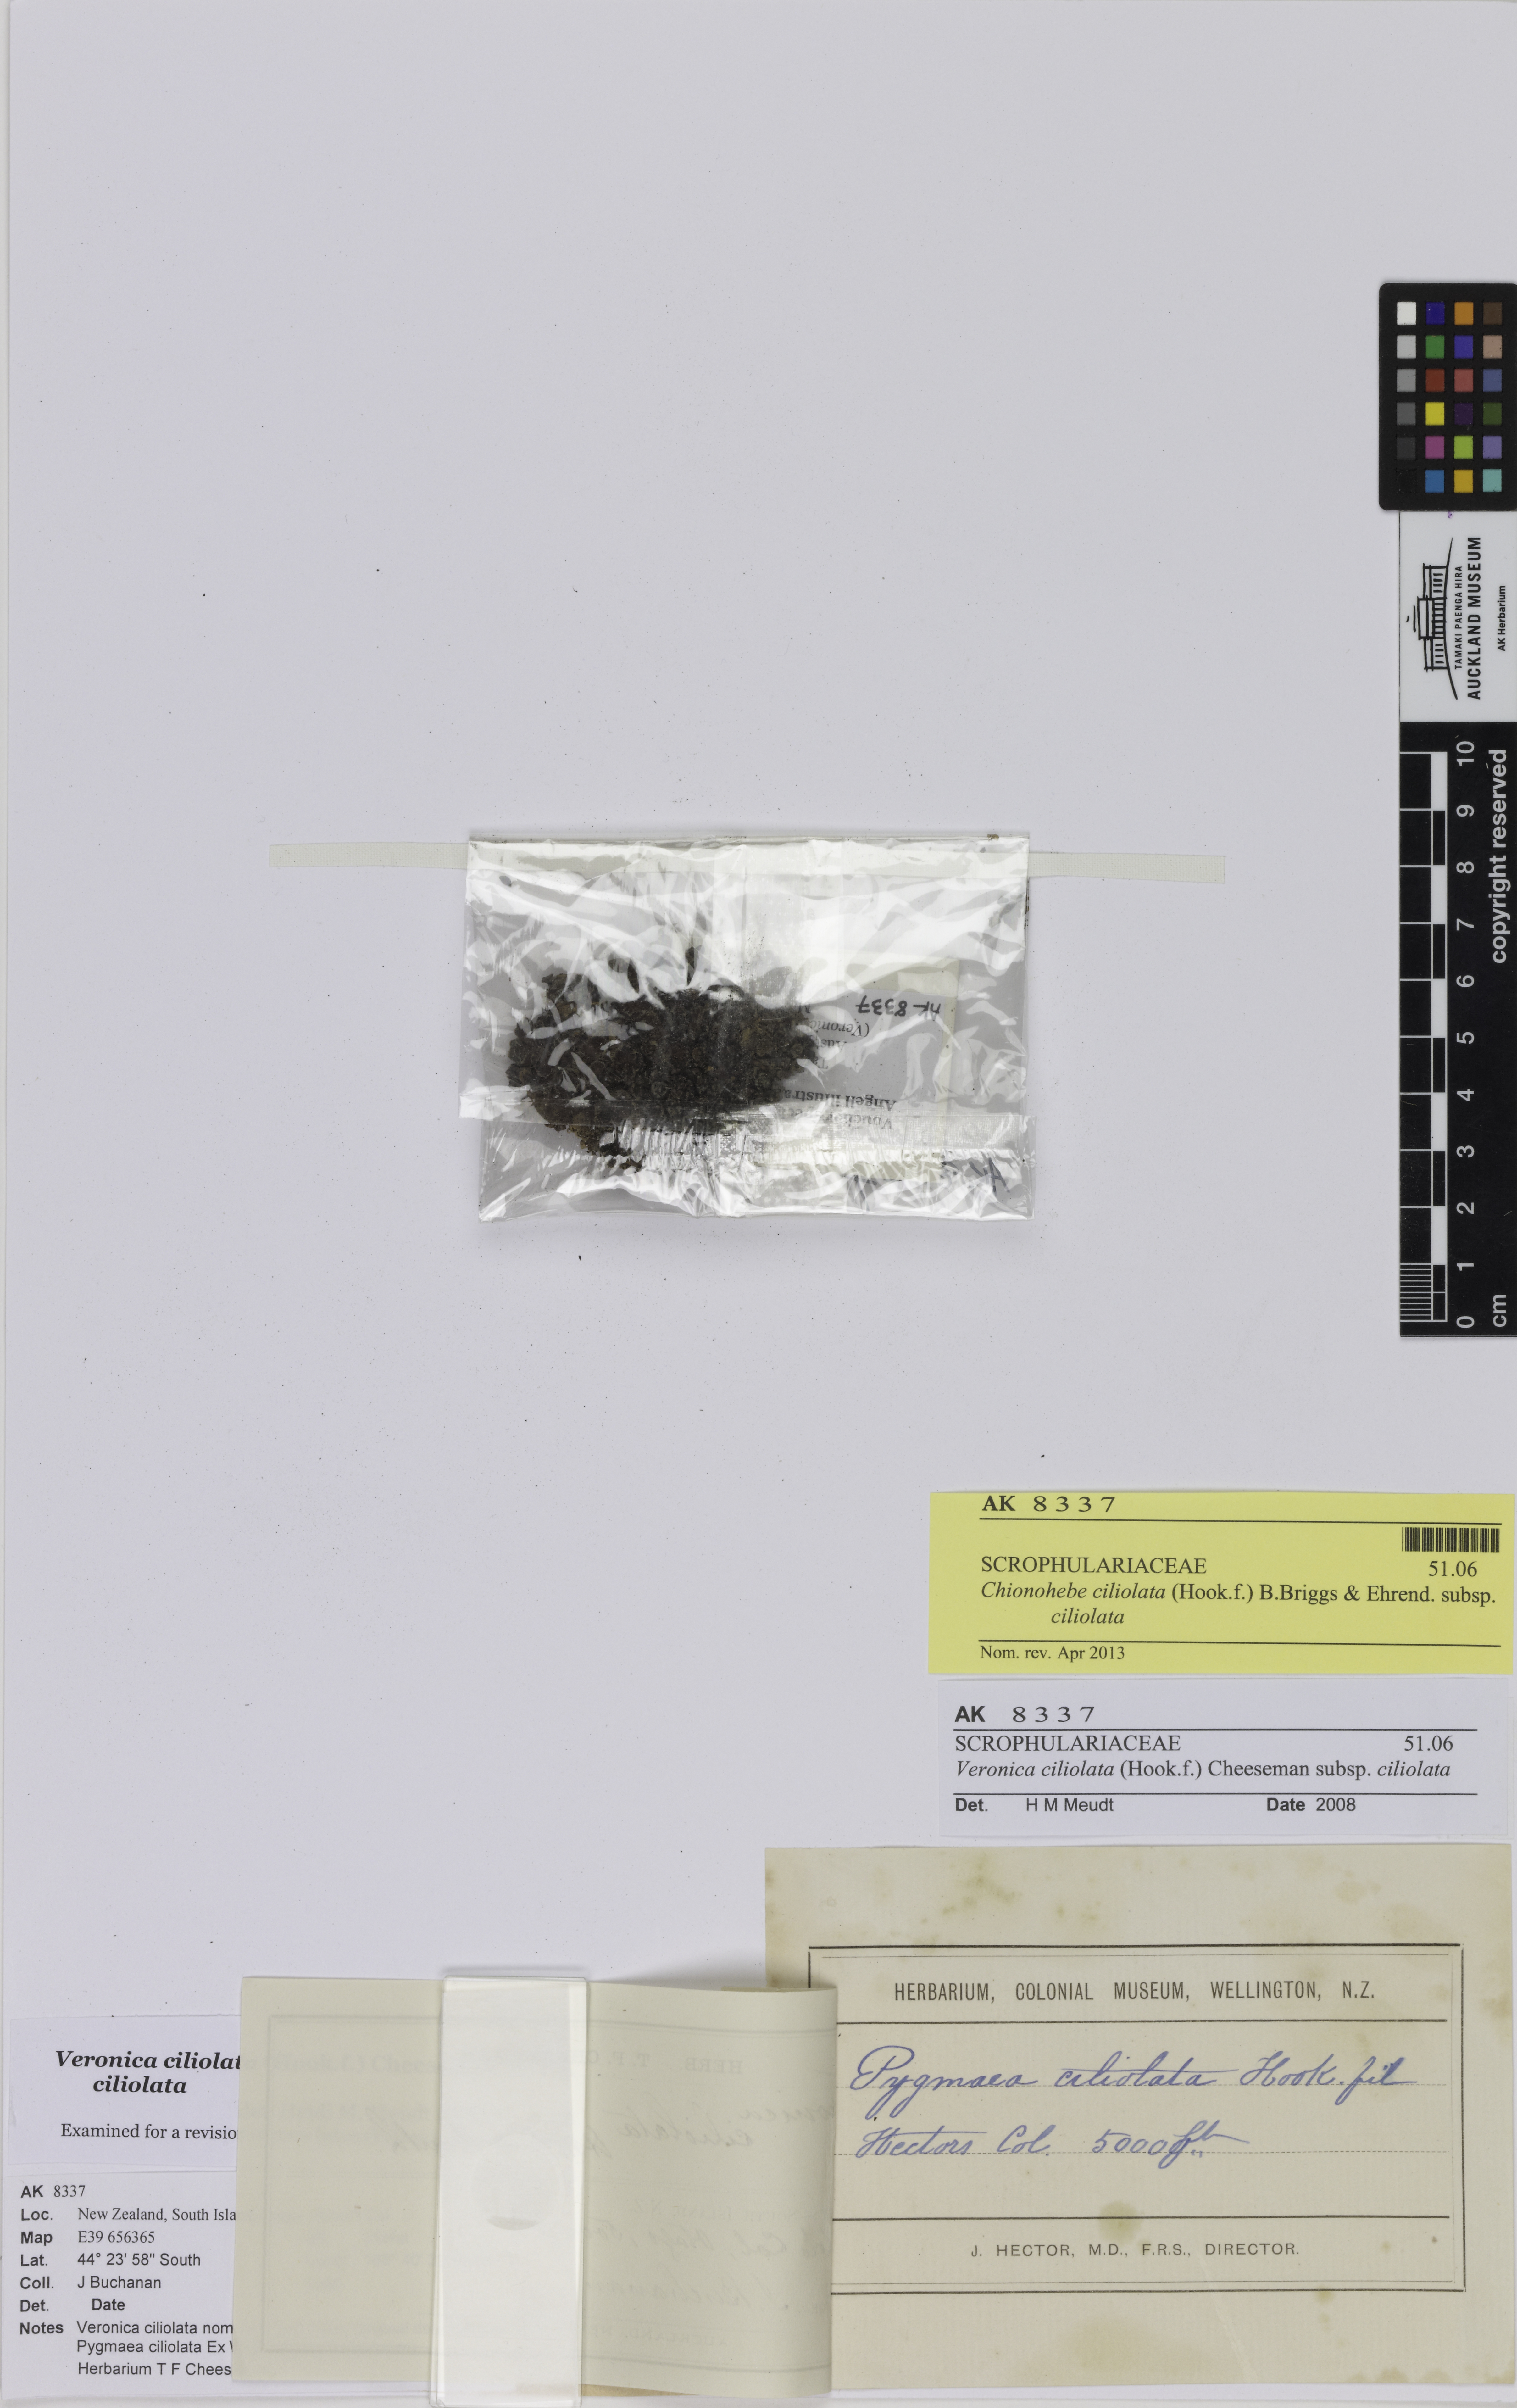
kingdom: Plantae
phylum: Tracheophyta
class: Magnoliopsida
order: Lamiales
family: Plantaginaceae
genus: Veronica
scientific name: Veronica ciliolata
